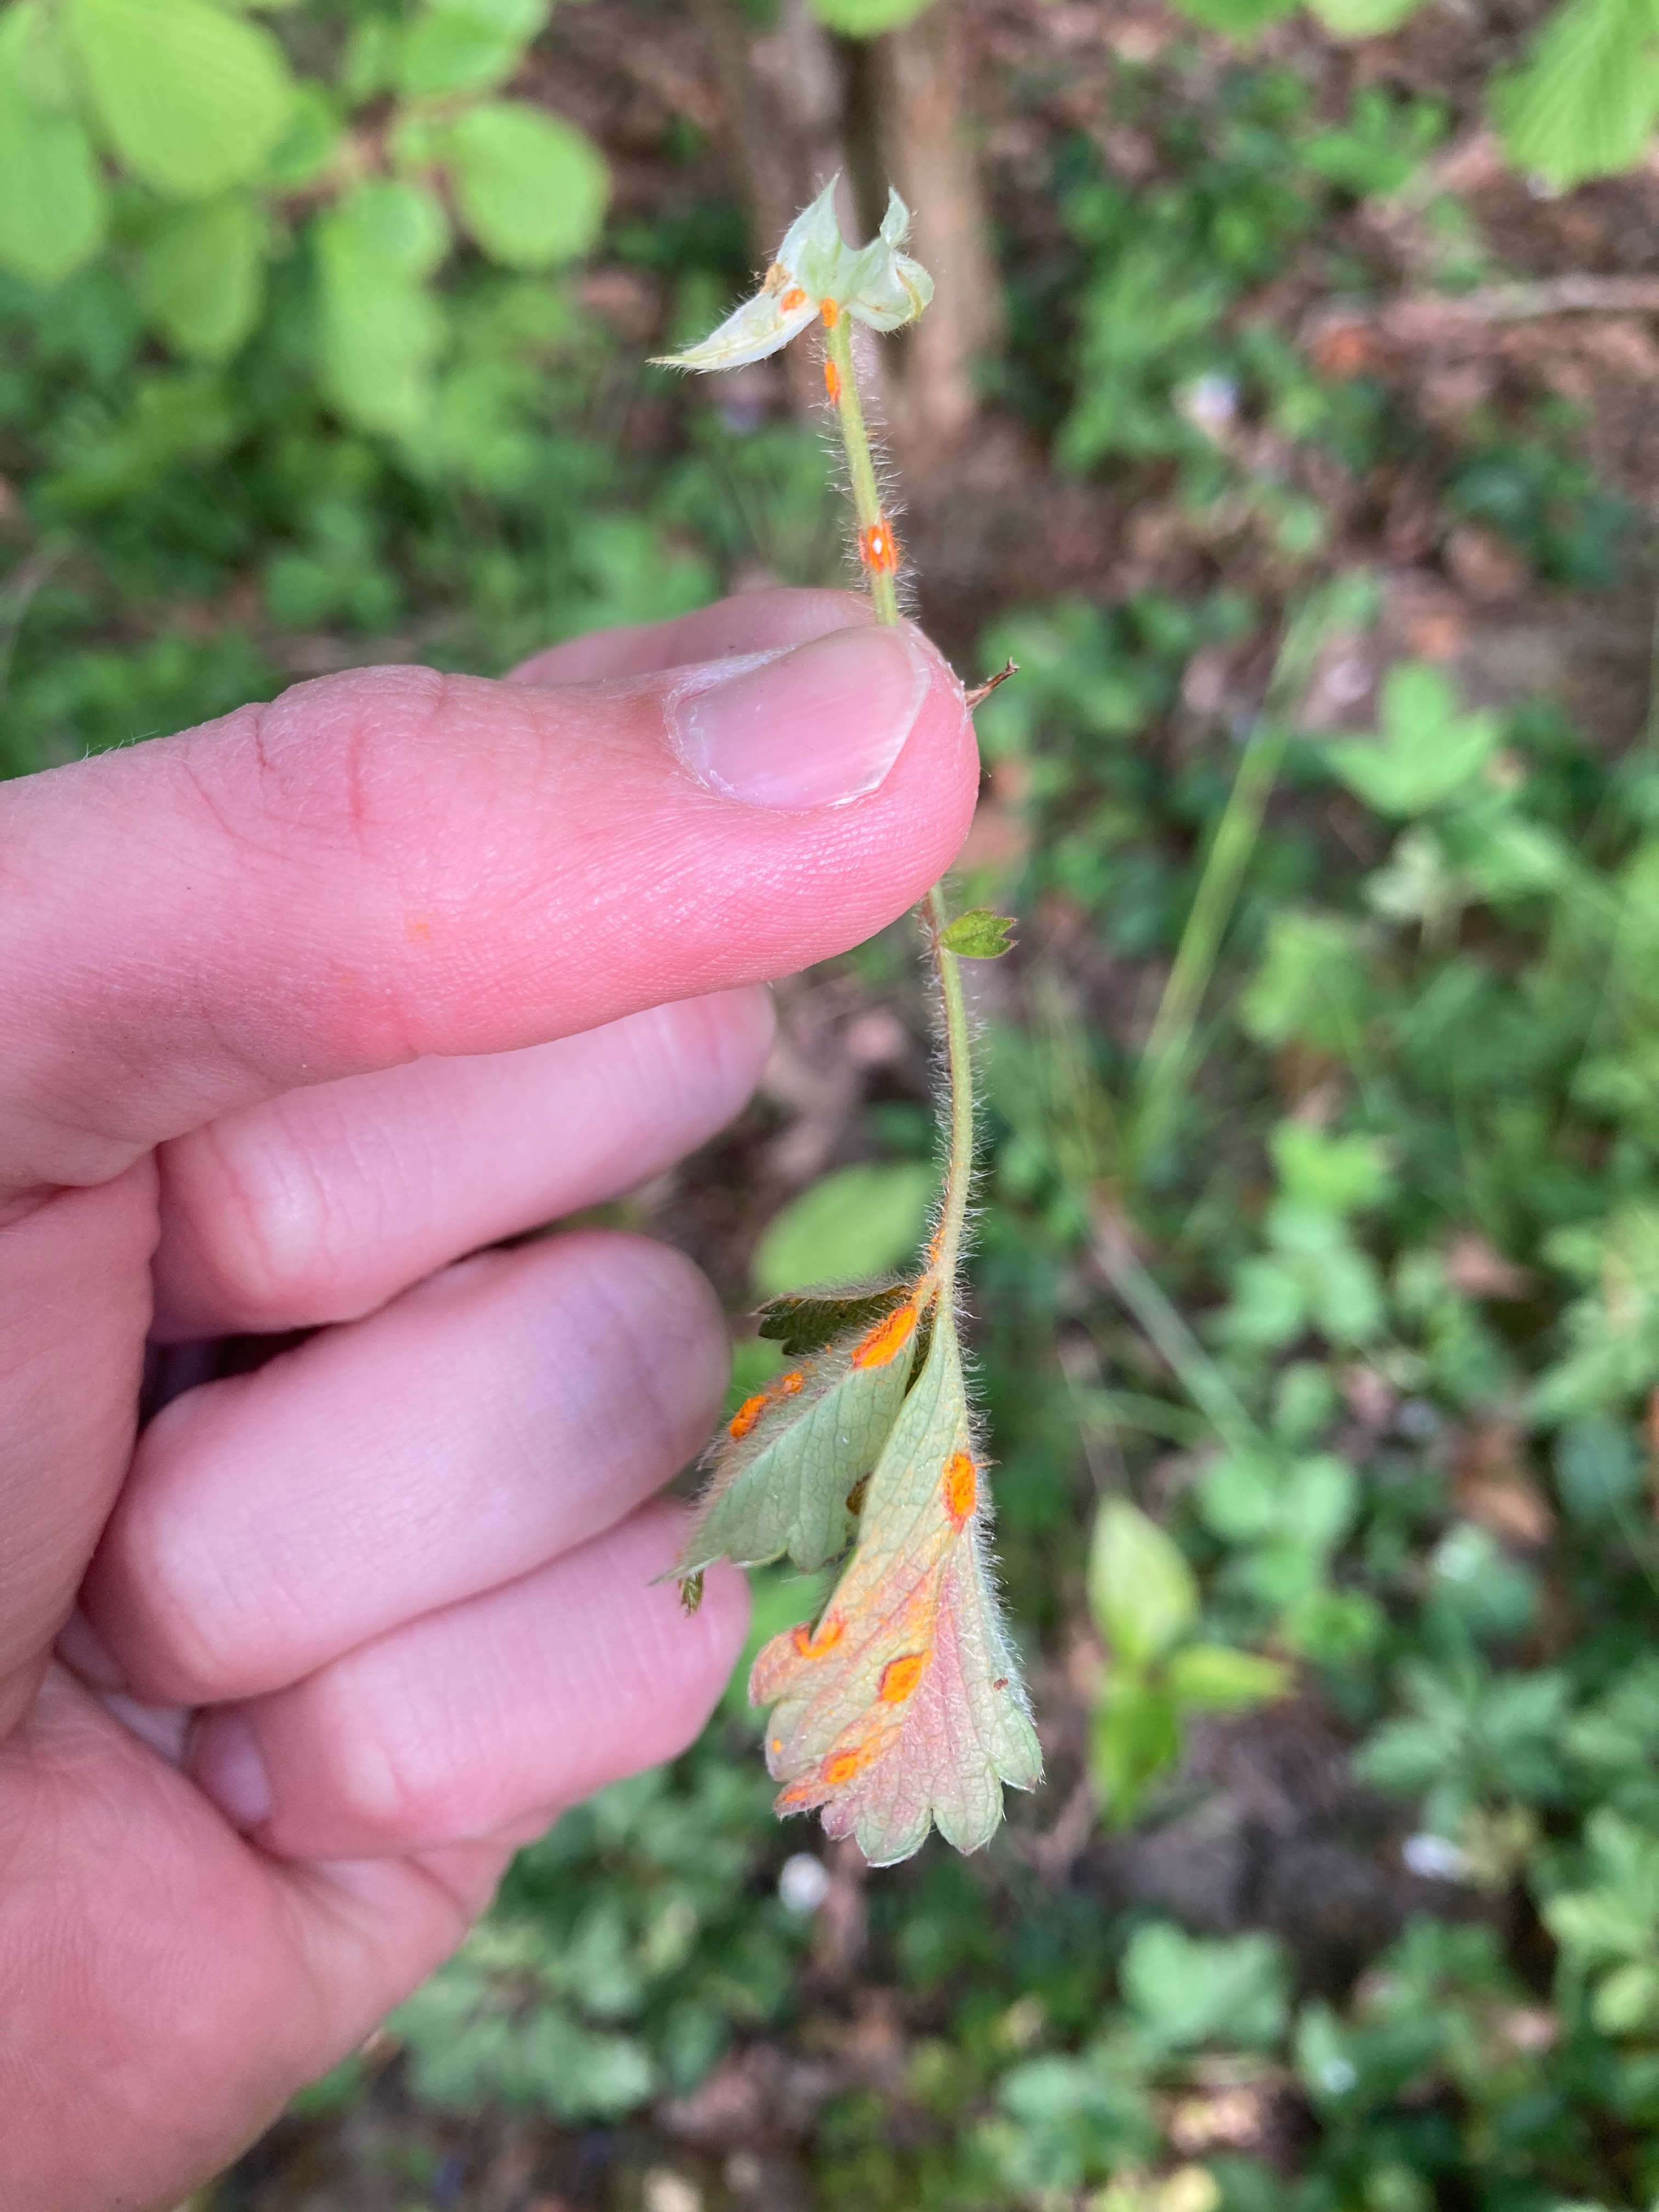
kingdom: Fungi
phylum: Basidiomycota
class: Pucciniomycetes
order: Pucciniales
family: Phragmidiaceae
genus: Phragmidium
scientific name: Phragmidium fragariae
